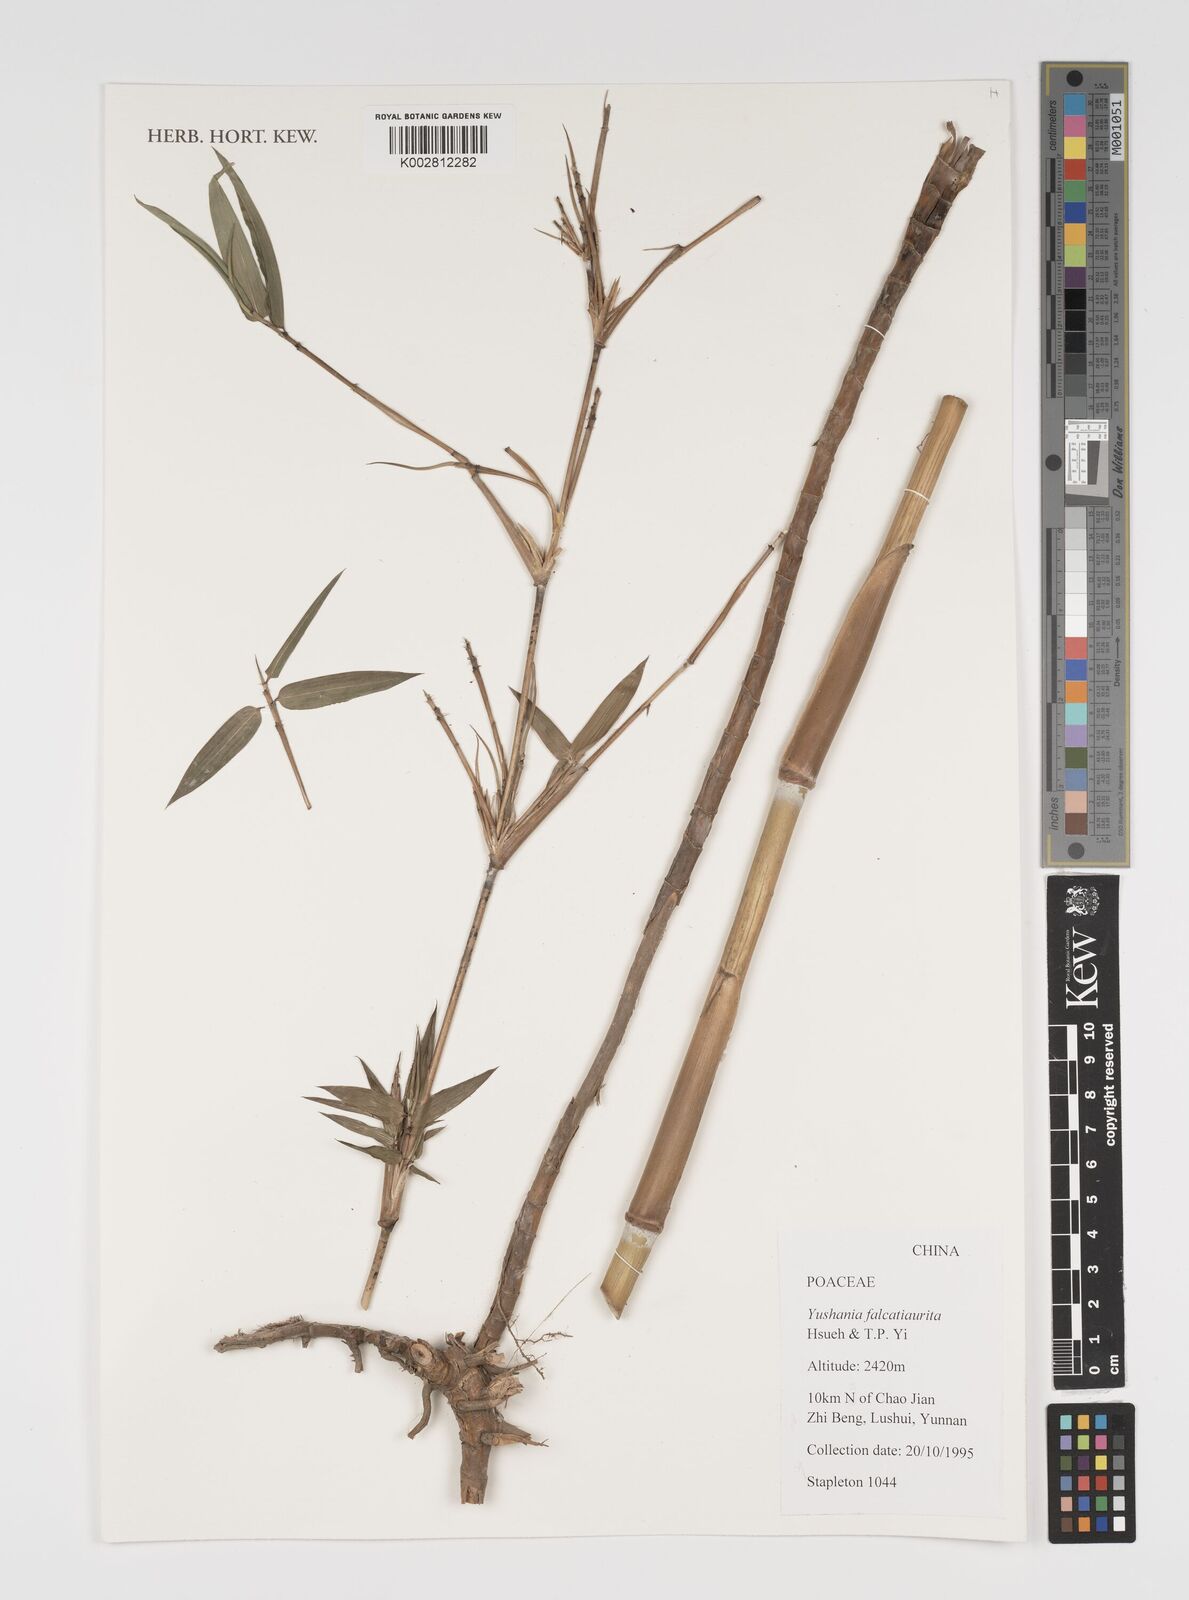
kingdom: Plantae
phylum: Tracheophyta
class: Liliopsida
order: Poales
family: Poaceae
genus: Yushania
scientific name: Yushania falcatiaurita
